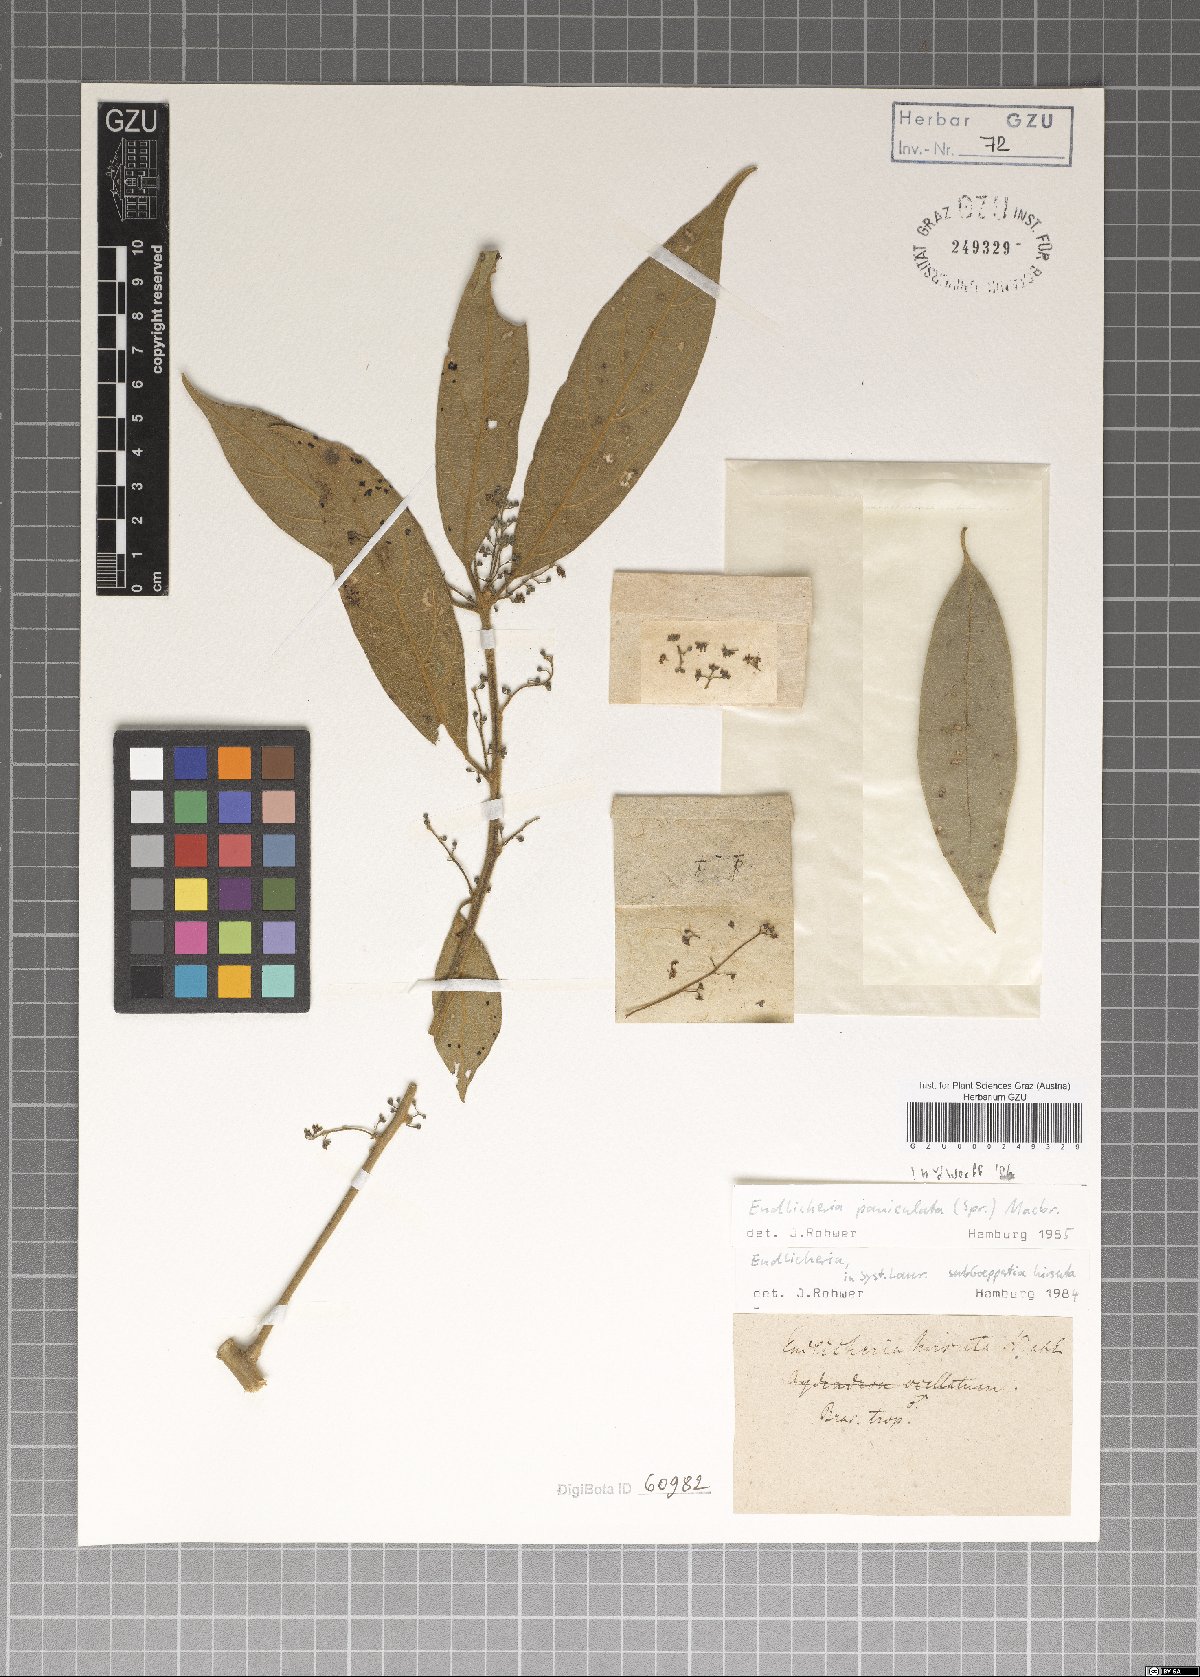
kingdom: Plantae
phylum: Tracheophyta
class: Magnoliopsida
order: Laurales
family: Lauraceae
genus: Endlicheria
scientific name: Endlicheria paniculata
